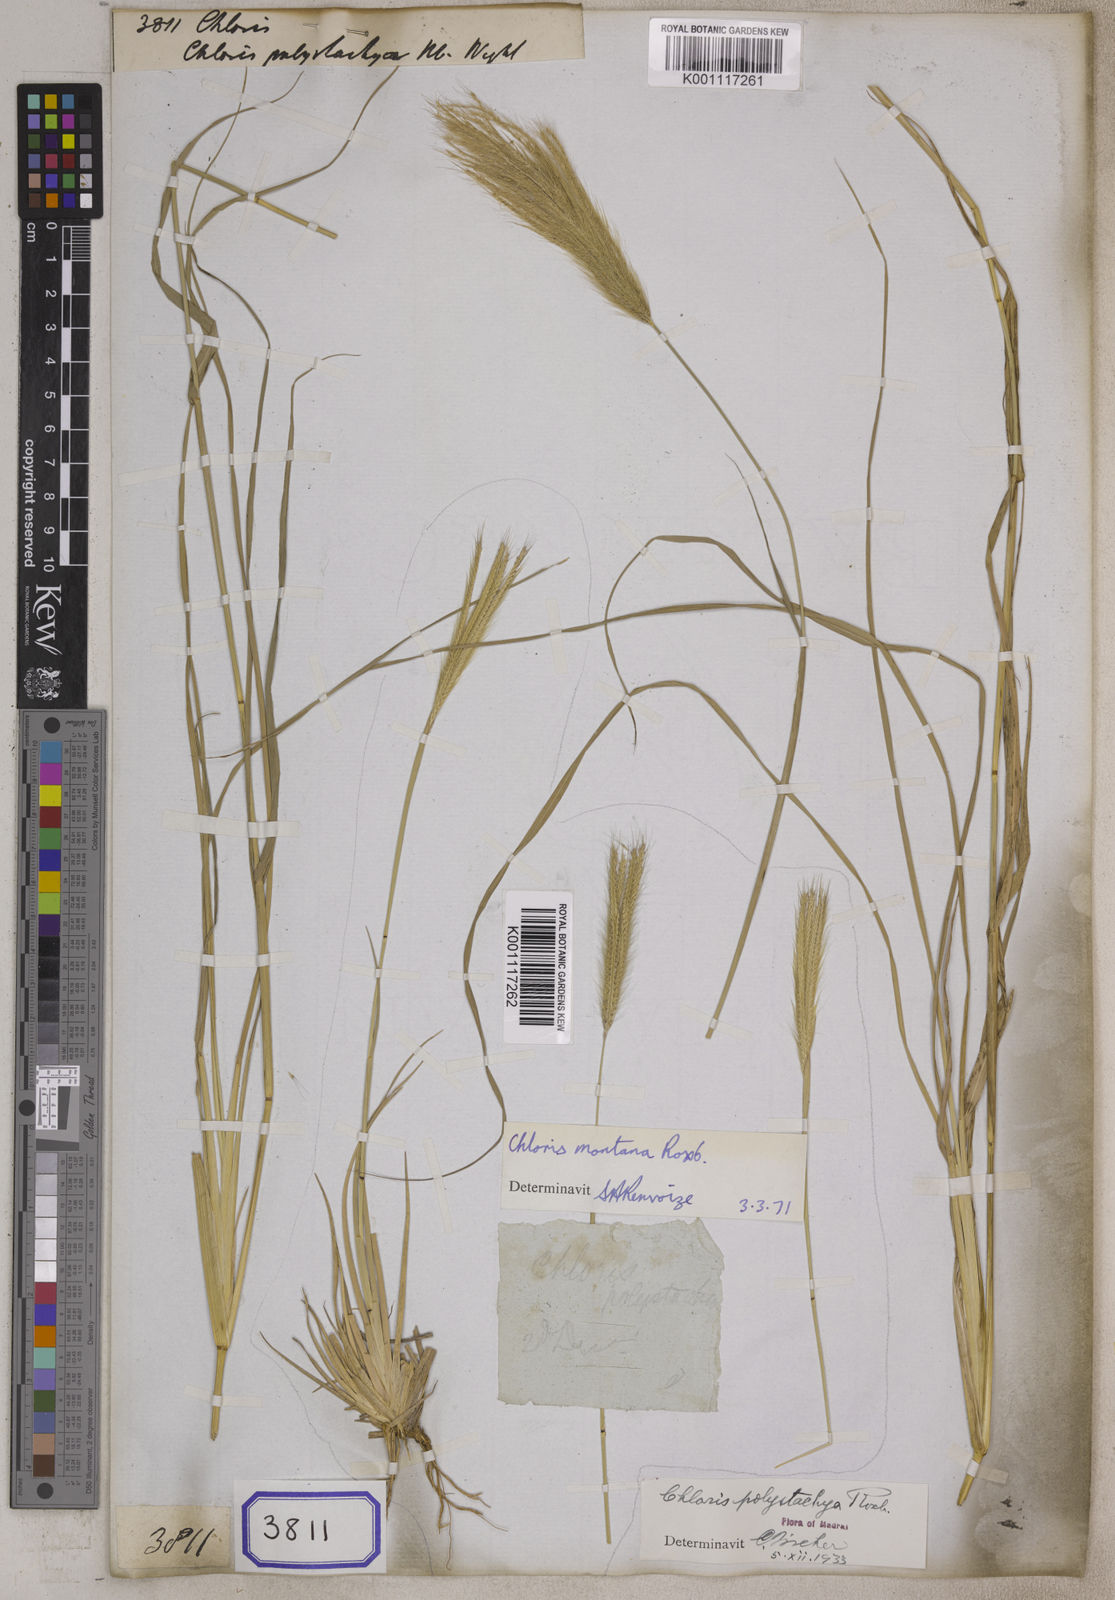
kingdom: Plantae
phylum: Tracheophyta
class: Liliopsida
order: Poales
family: Poaceae
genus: Chloris
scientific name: Chloris
